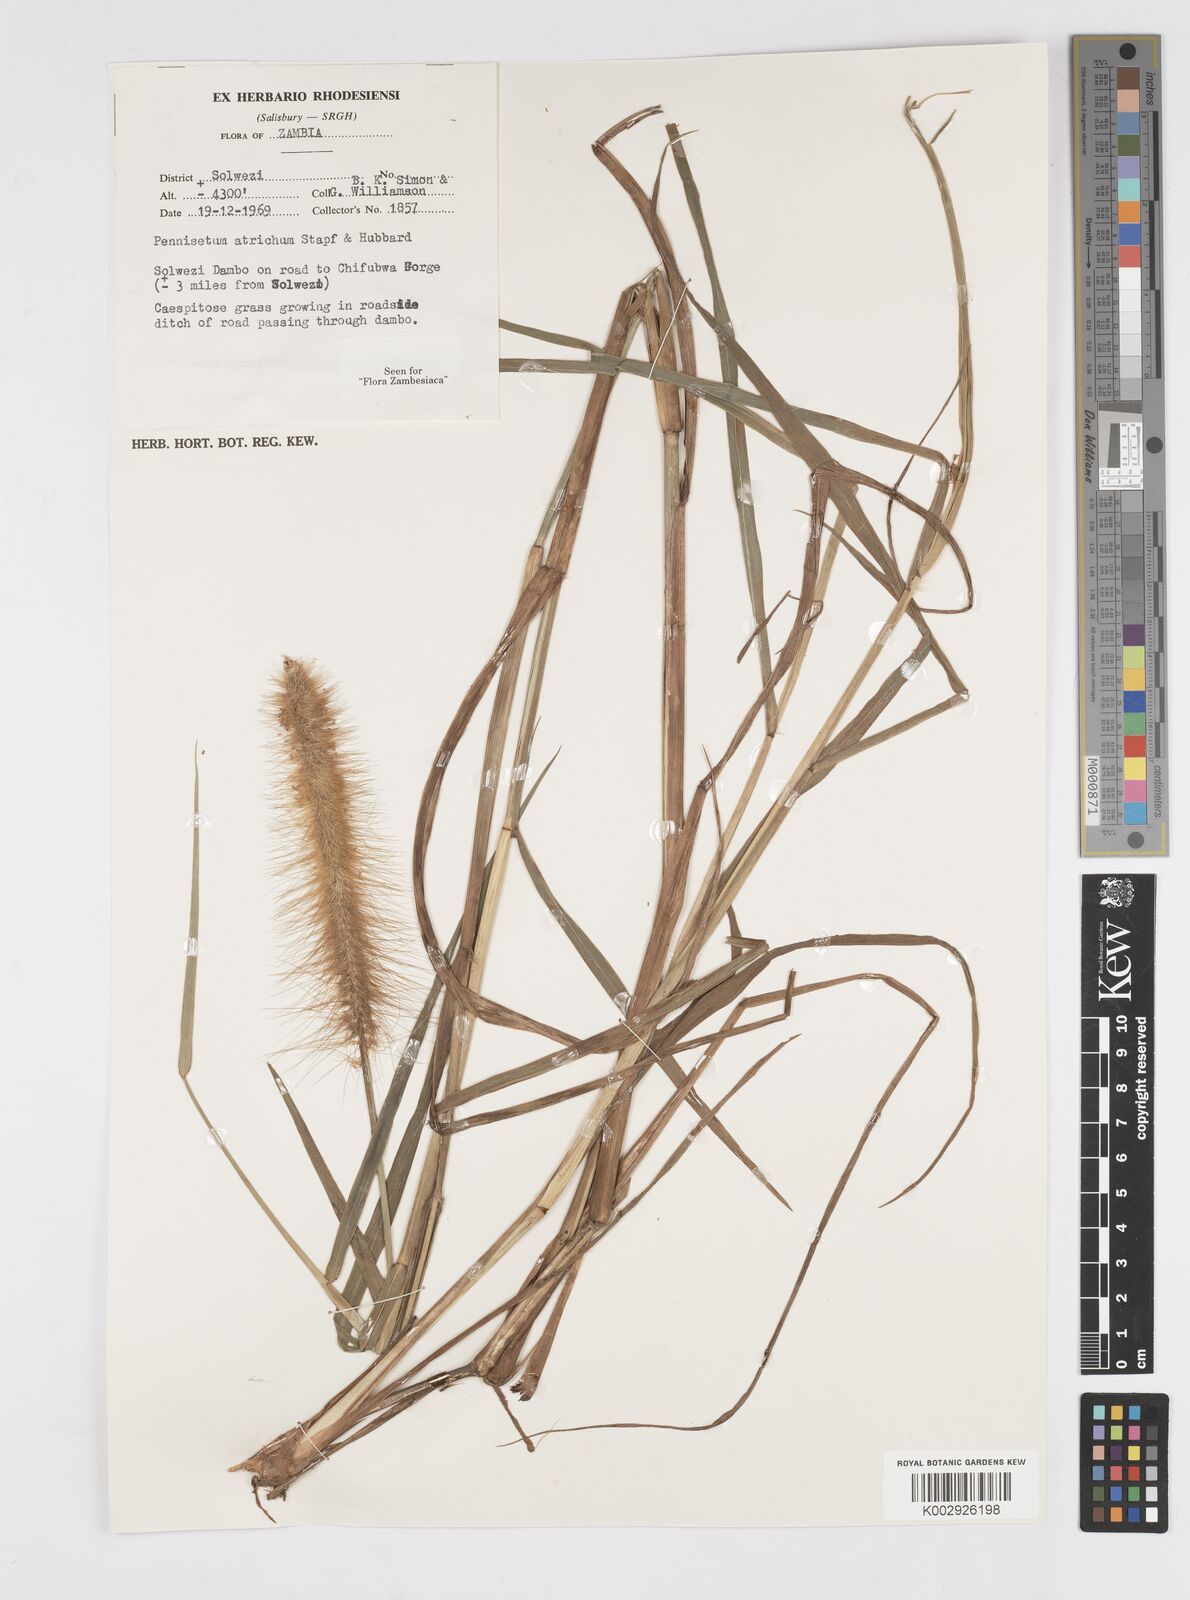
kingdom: Plantae
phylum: Tracheophyta
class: Liliopsida
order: Poales
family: Poaceae
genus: Cenchrus
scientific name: Cenchrus setosus
